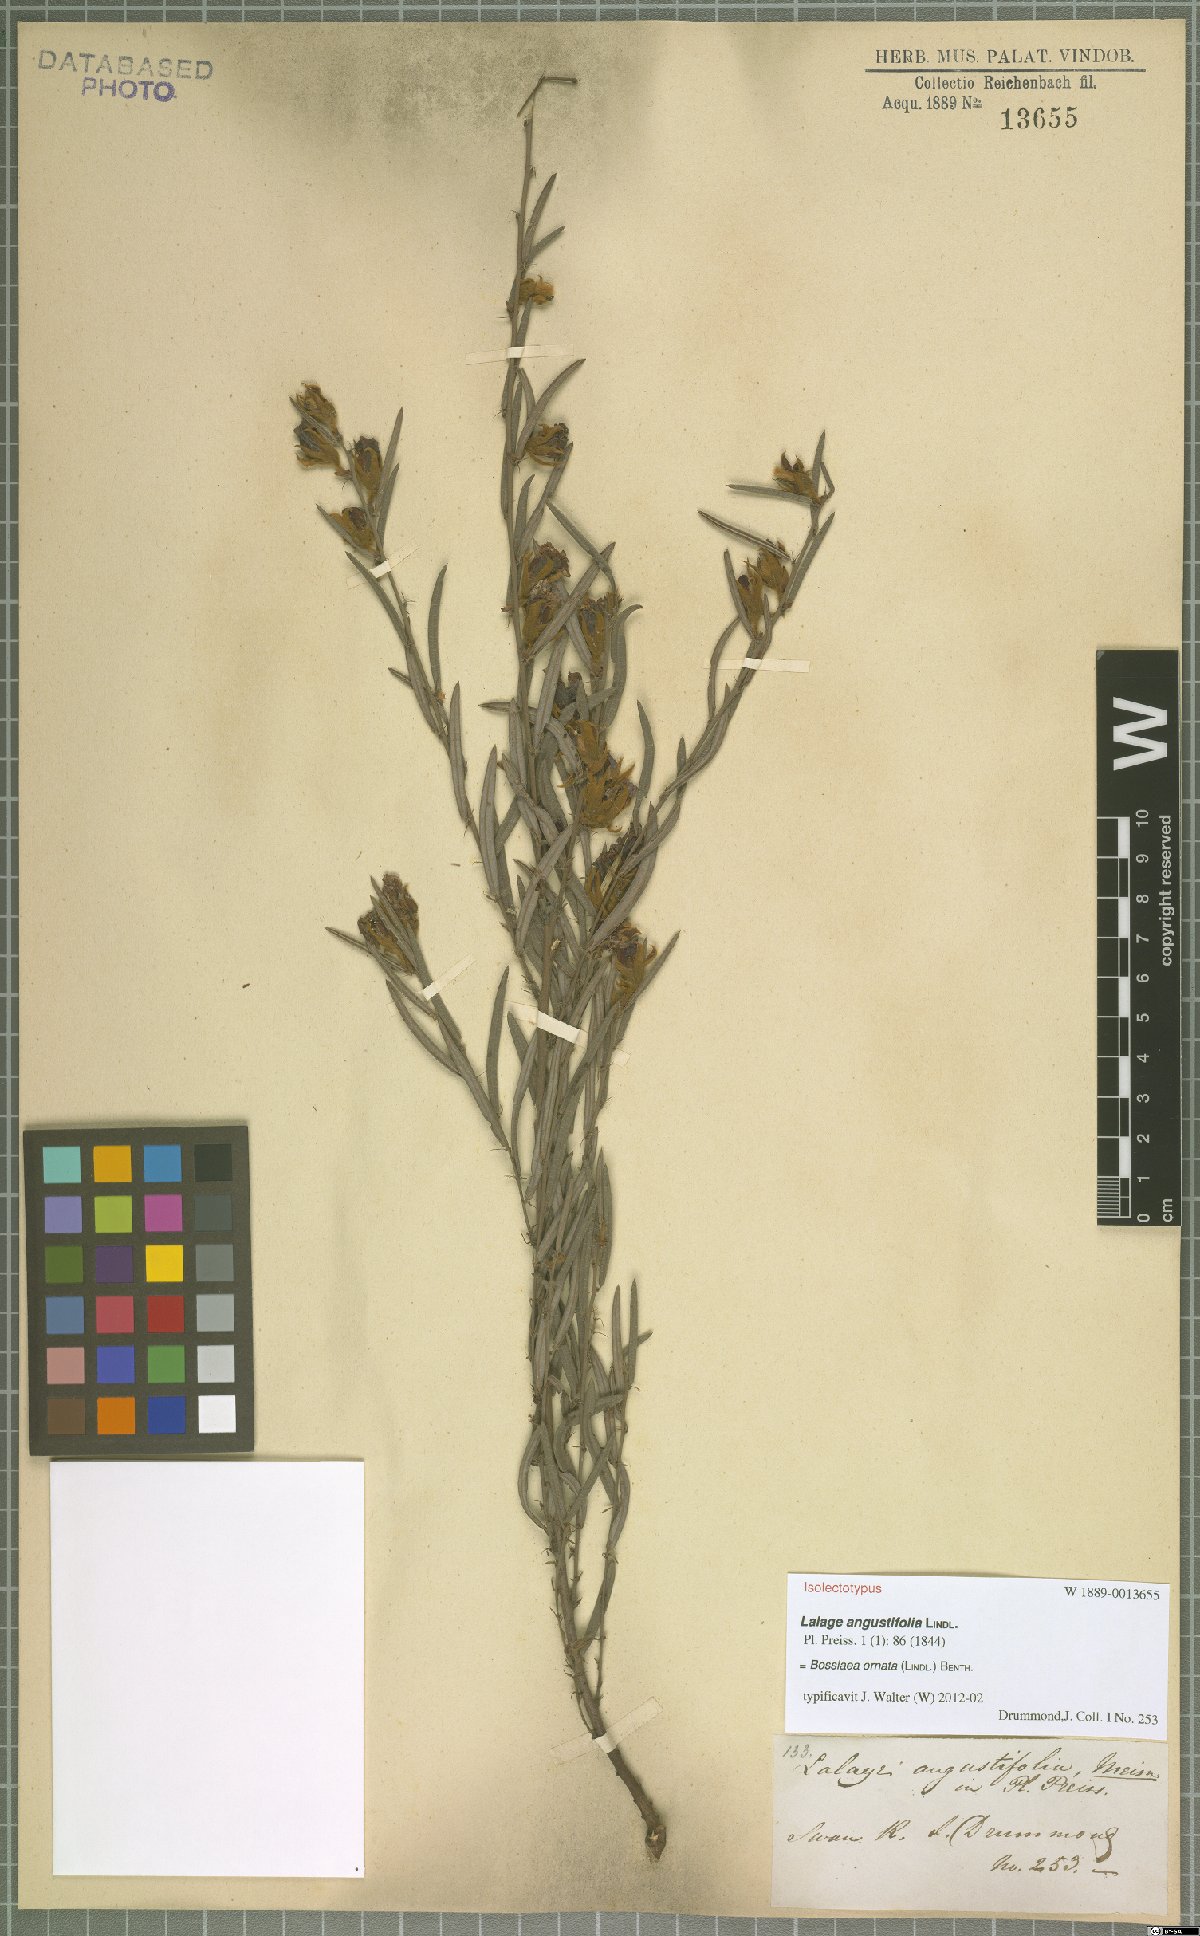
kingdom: Plantae
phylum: Tracheophyta
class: Magnoliopsida
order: Fabales
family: Fabaceae
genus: Bossiaea
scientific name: Bossiaea ornata
